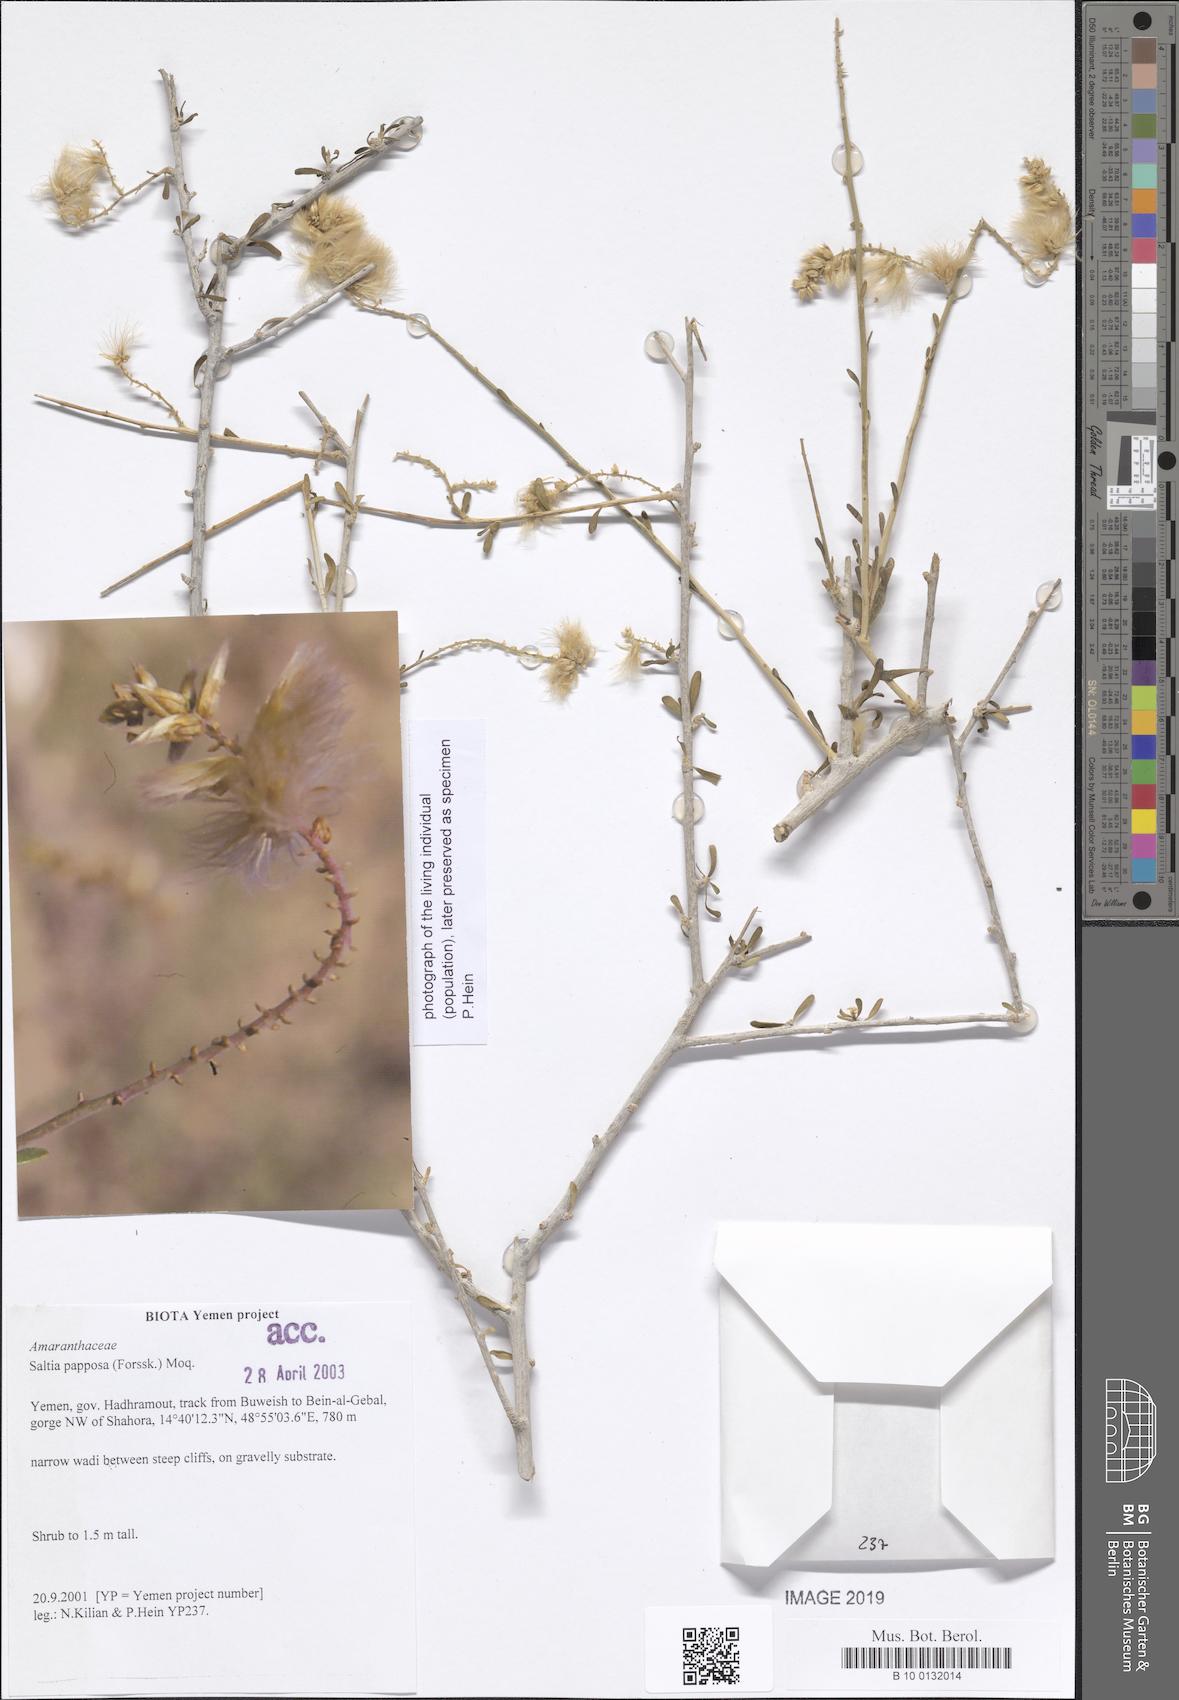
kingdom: Plantae
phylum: Tracheophyta
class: Magnoliopsida
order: Caryophyllales
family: Amaranthaceae
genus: Saltia
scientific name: Saltia papposa
